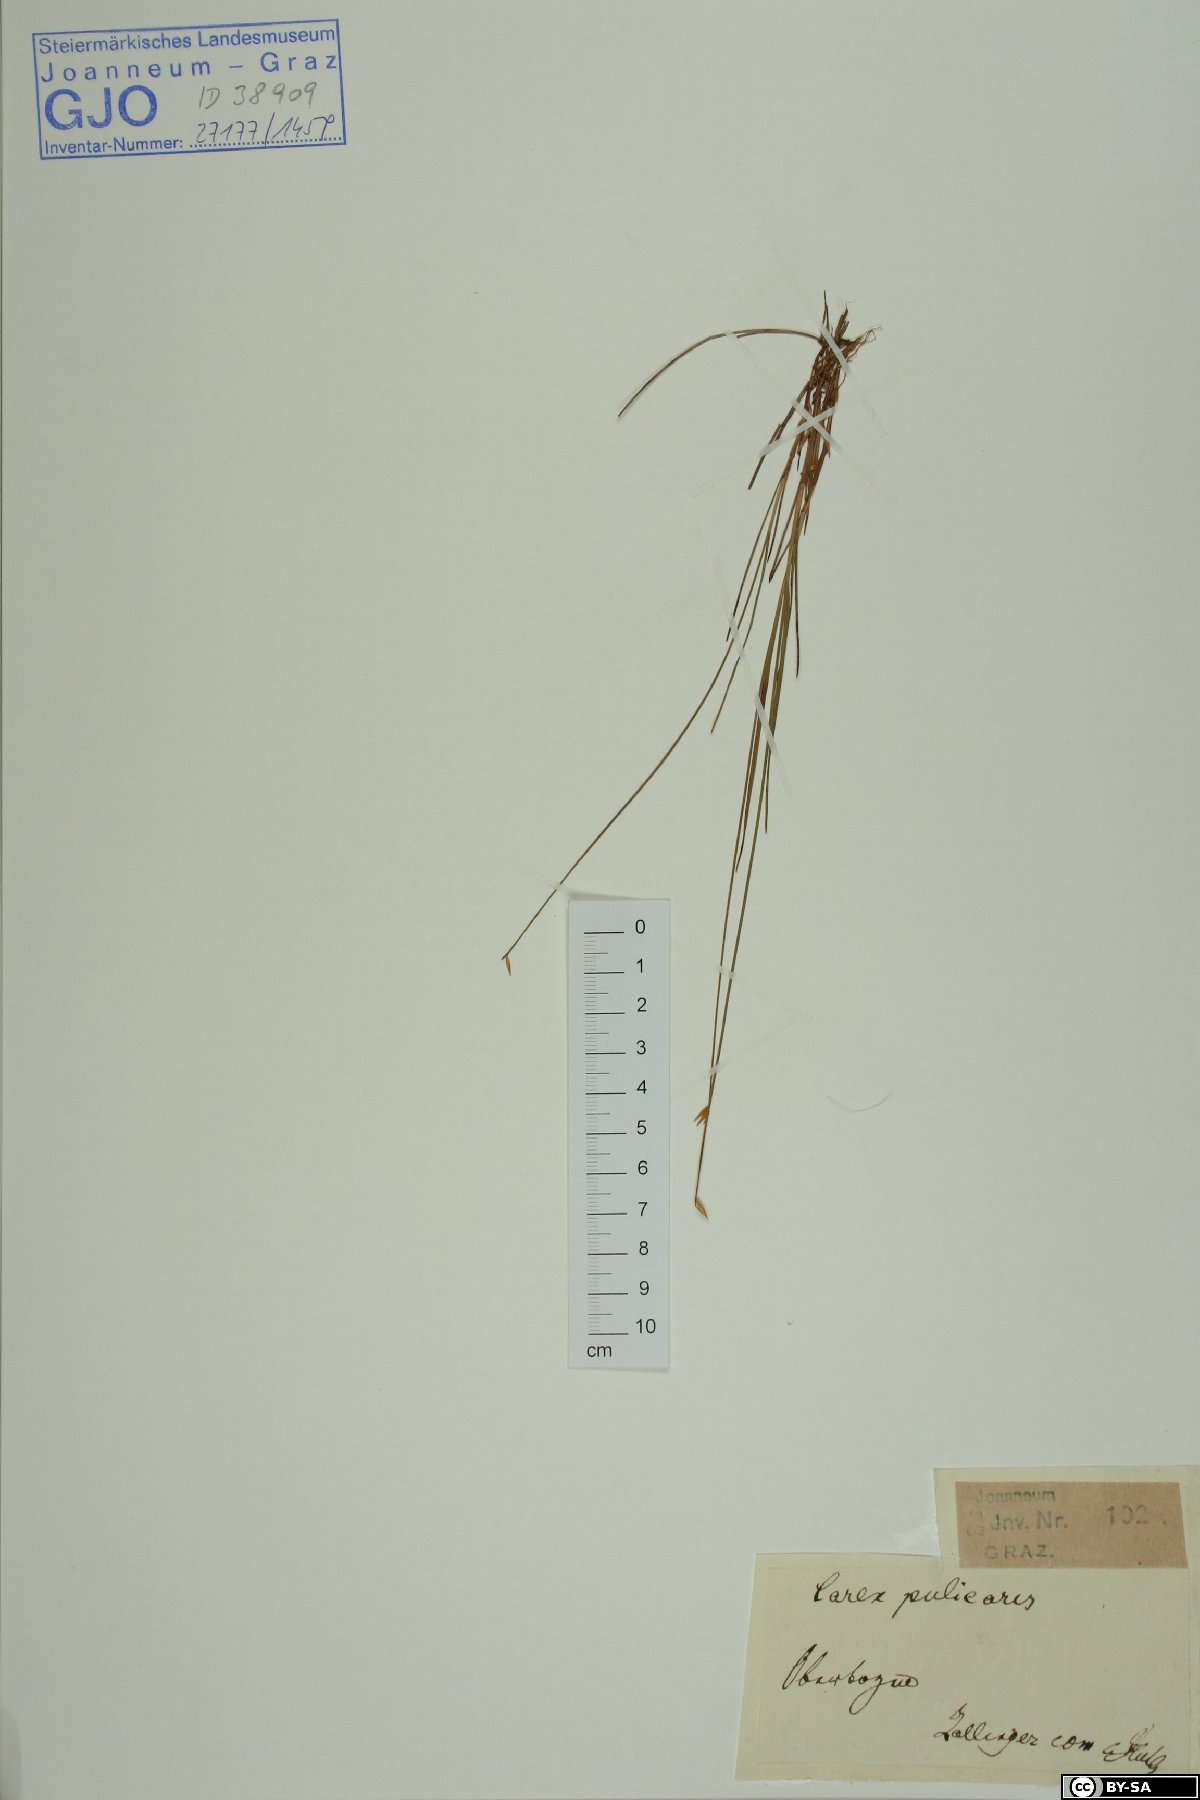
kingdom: Plantae
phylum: Tracheophyta
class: Liliopsida
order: Poales
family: Cyperaceae
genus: Carex
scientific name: Carex pulicaris
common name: Flea sedge
